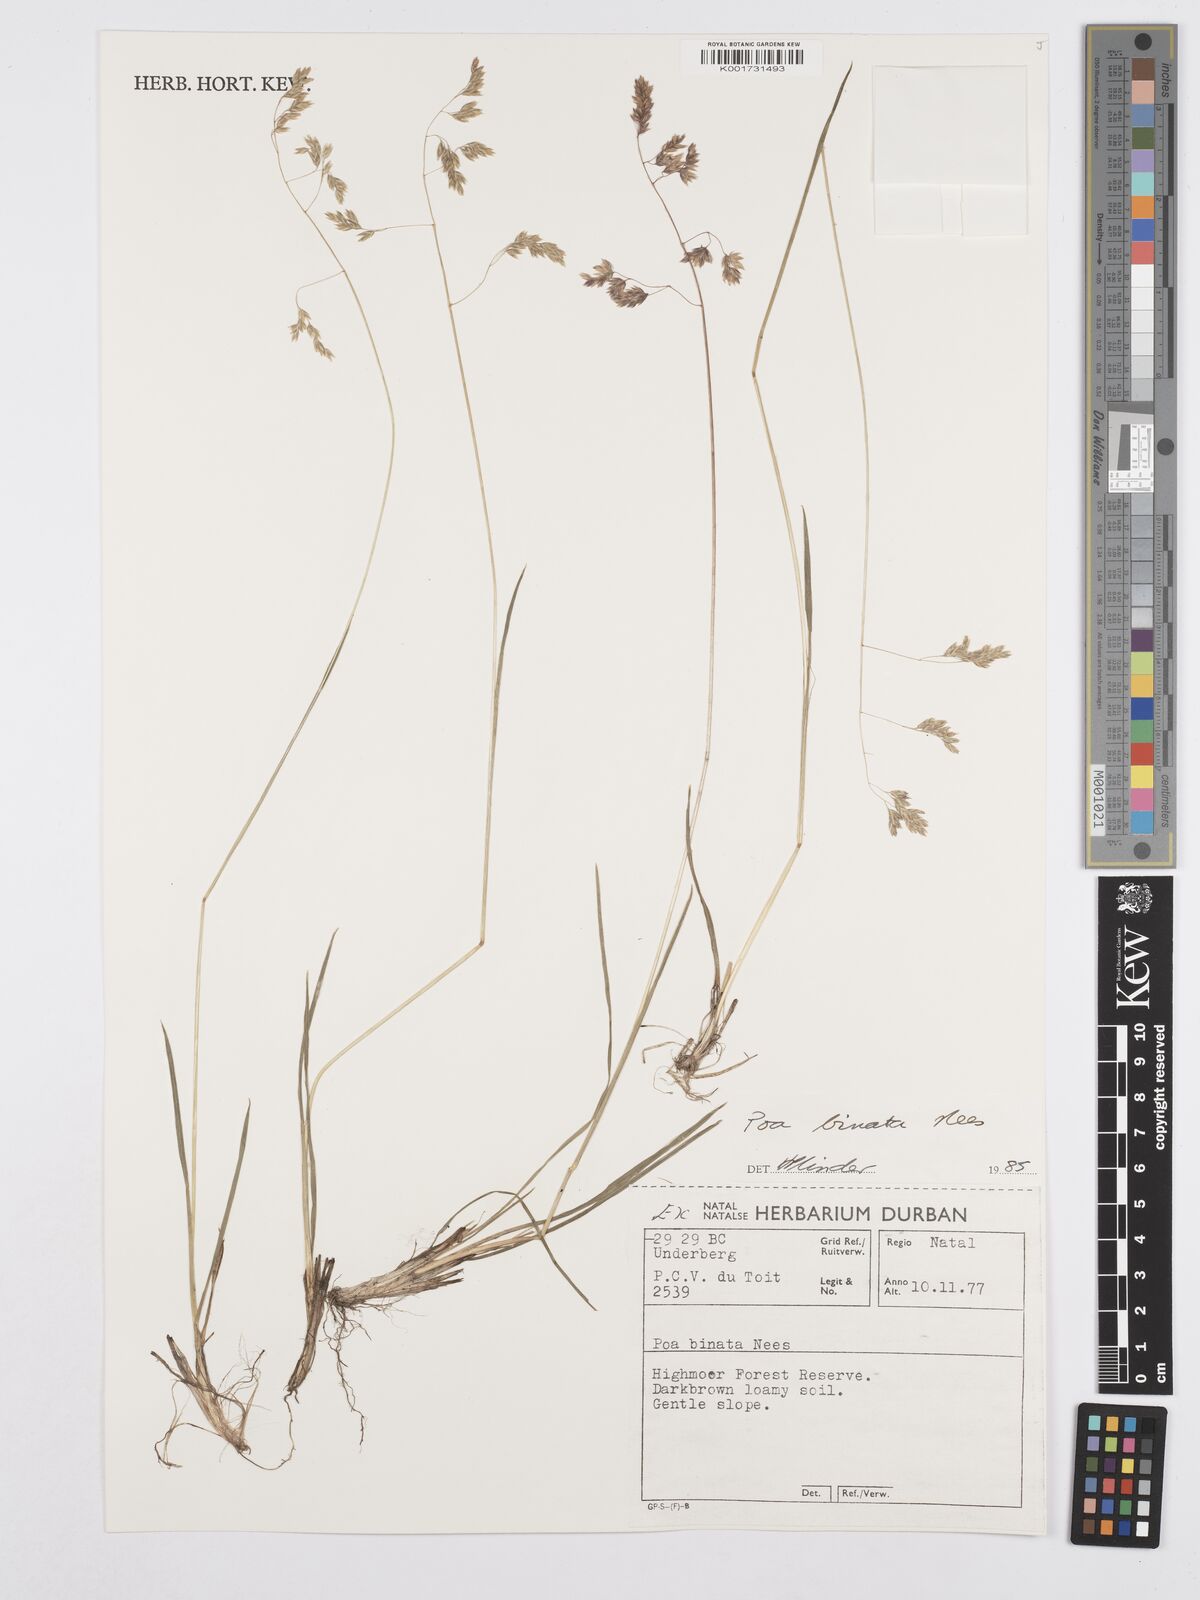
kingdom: Plantae
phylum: Tracheophyta
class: Liliopsida
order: Poales
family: Poaceae
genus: Poa
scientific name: Poa binata
